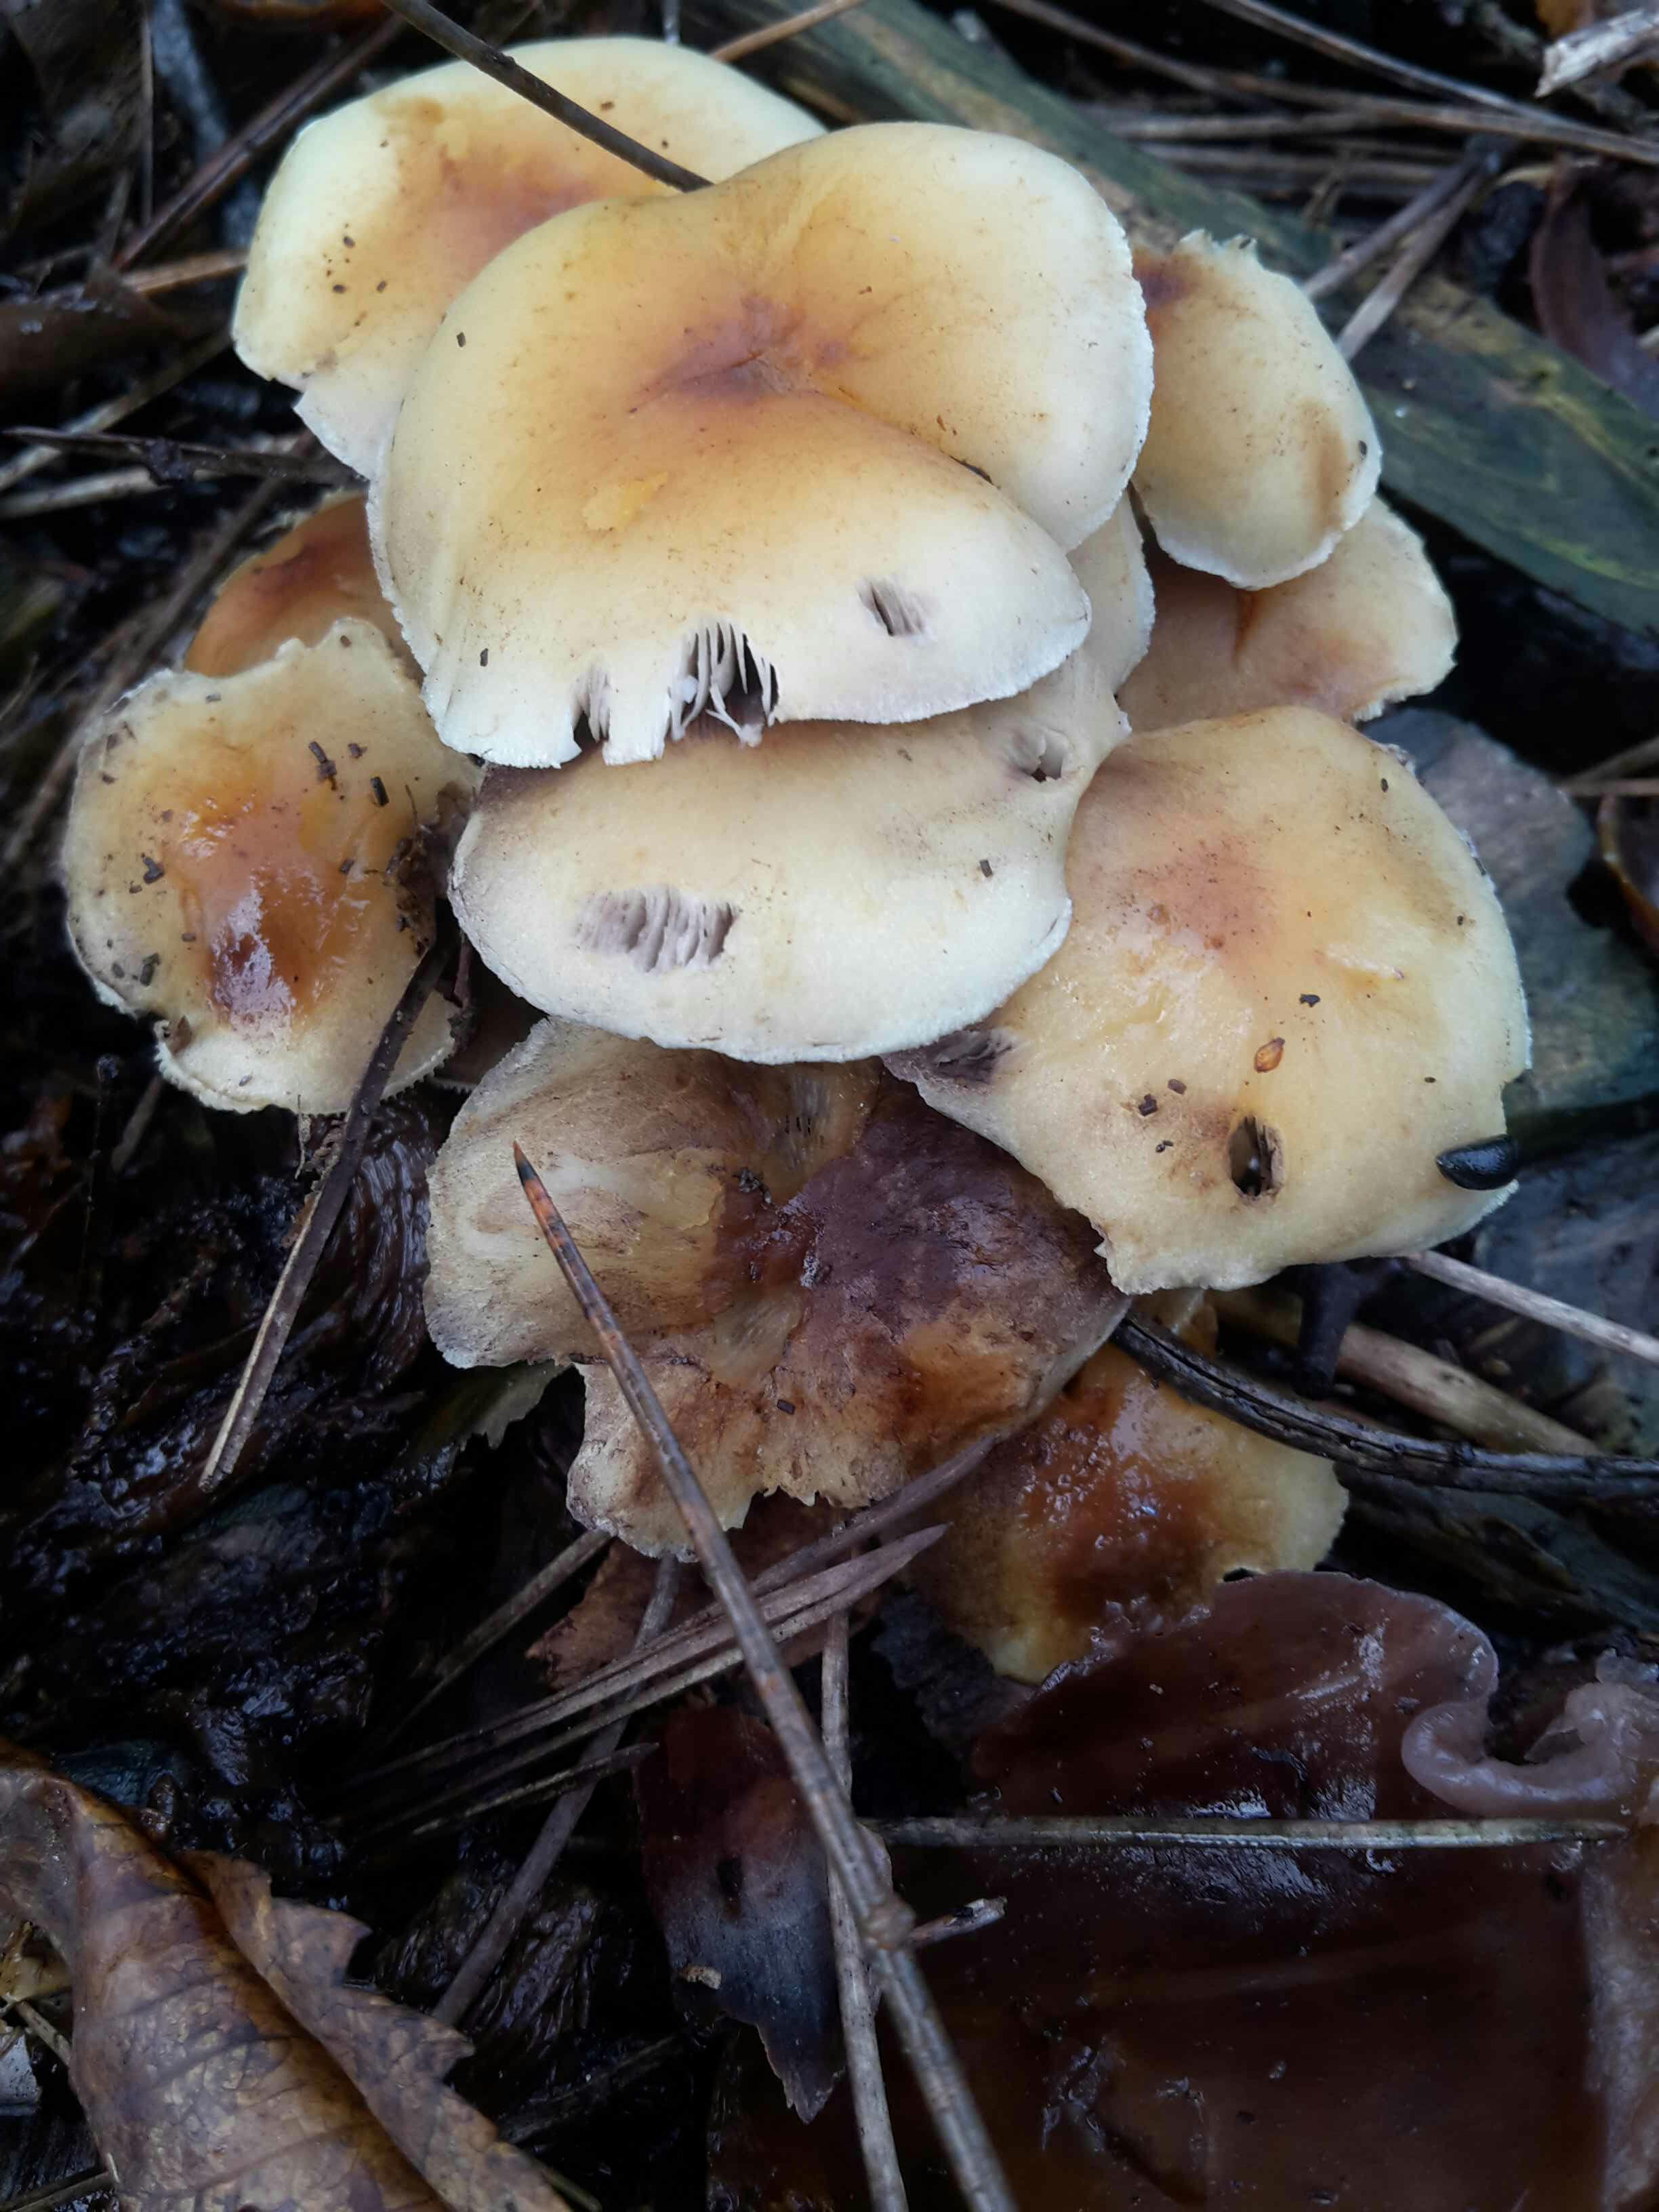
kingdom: Fungi
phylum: Basidiomycota
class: Agaricomycetes
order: Agaricales
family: Strophariaceae
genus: Hypholoma
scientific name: Hypholoma
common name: svovlhat
